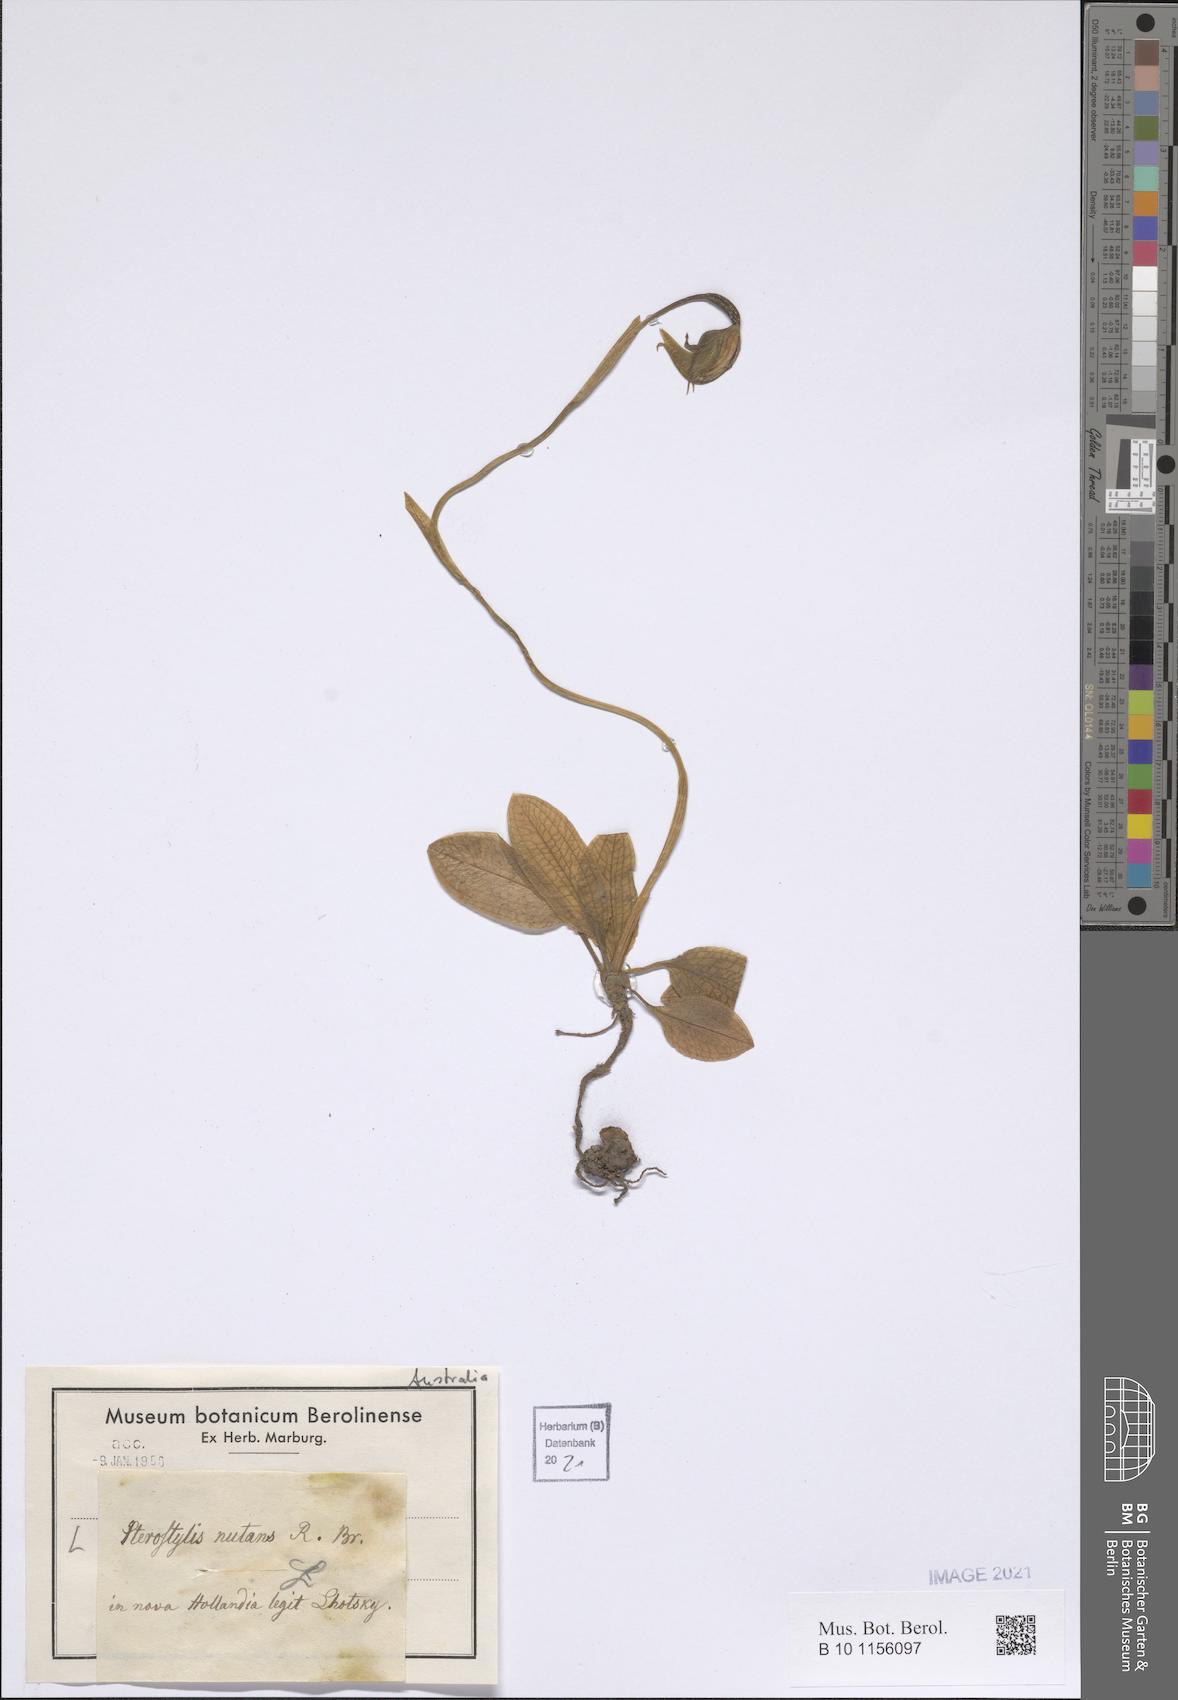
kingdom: Plantae
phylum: Tracheophyta
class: Liliopsida
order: Asparagales
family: Orchidaceae
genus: Pterostylis
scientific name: Pterostylis nutans
